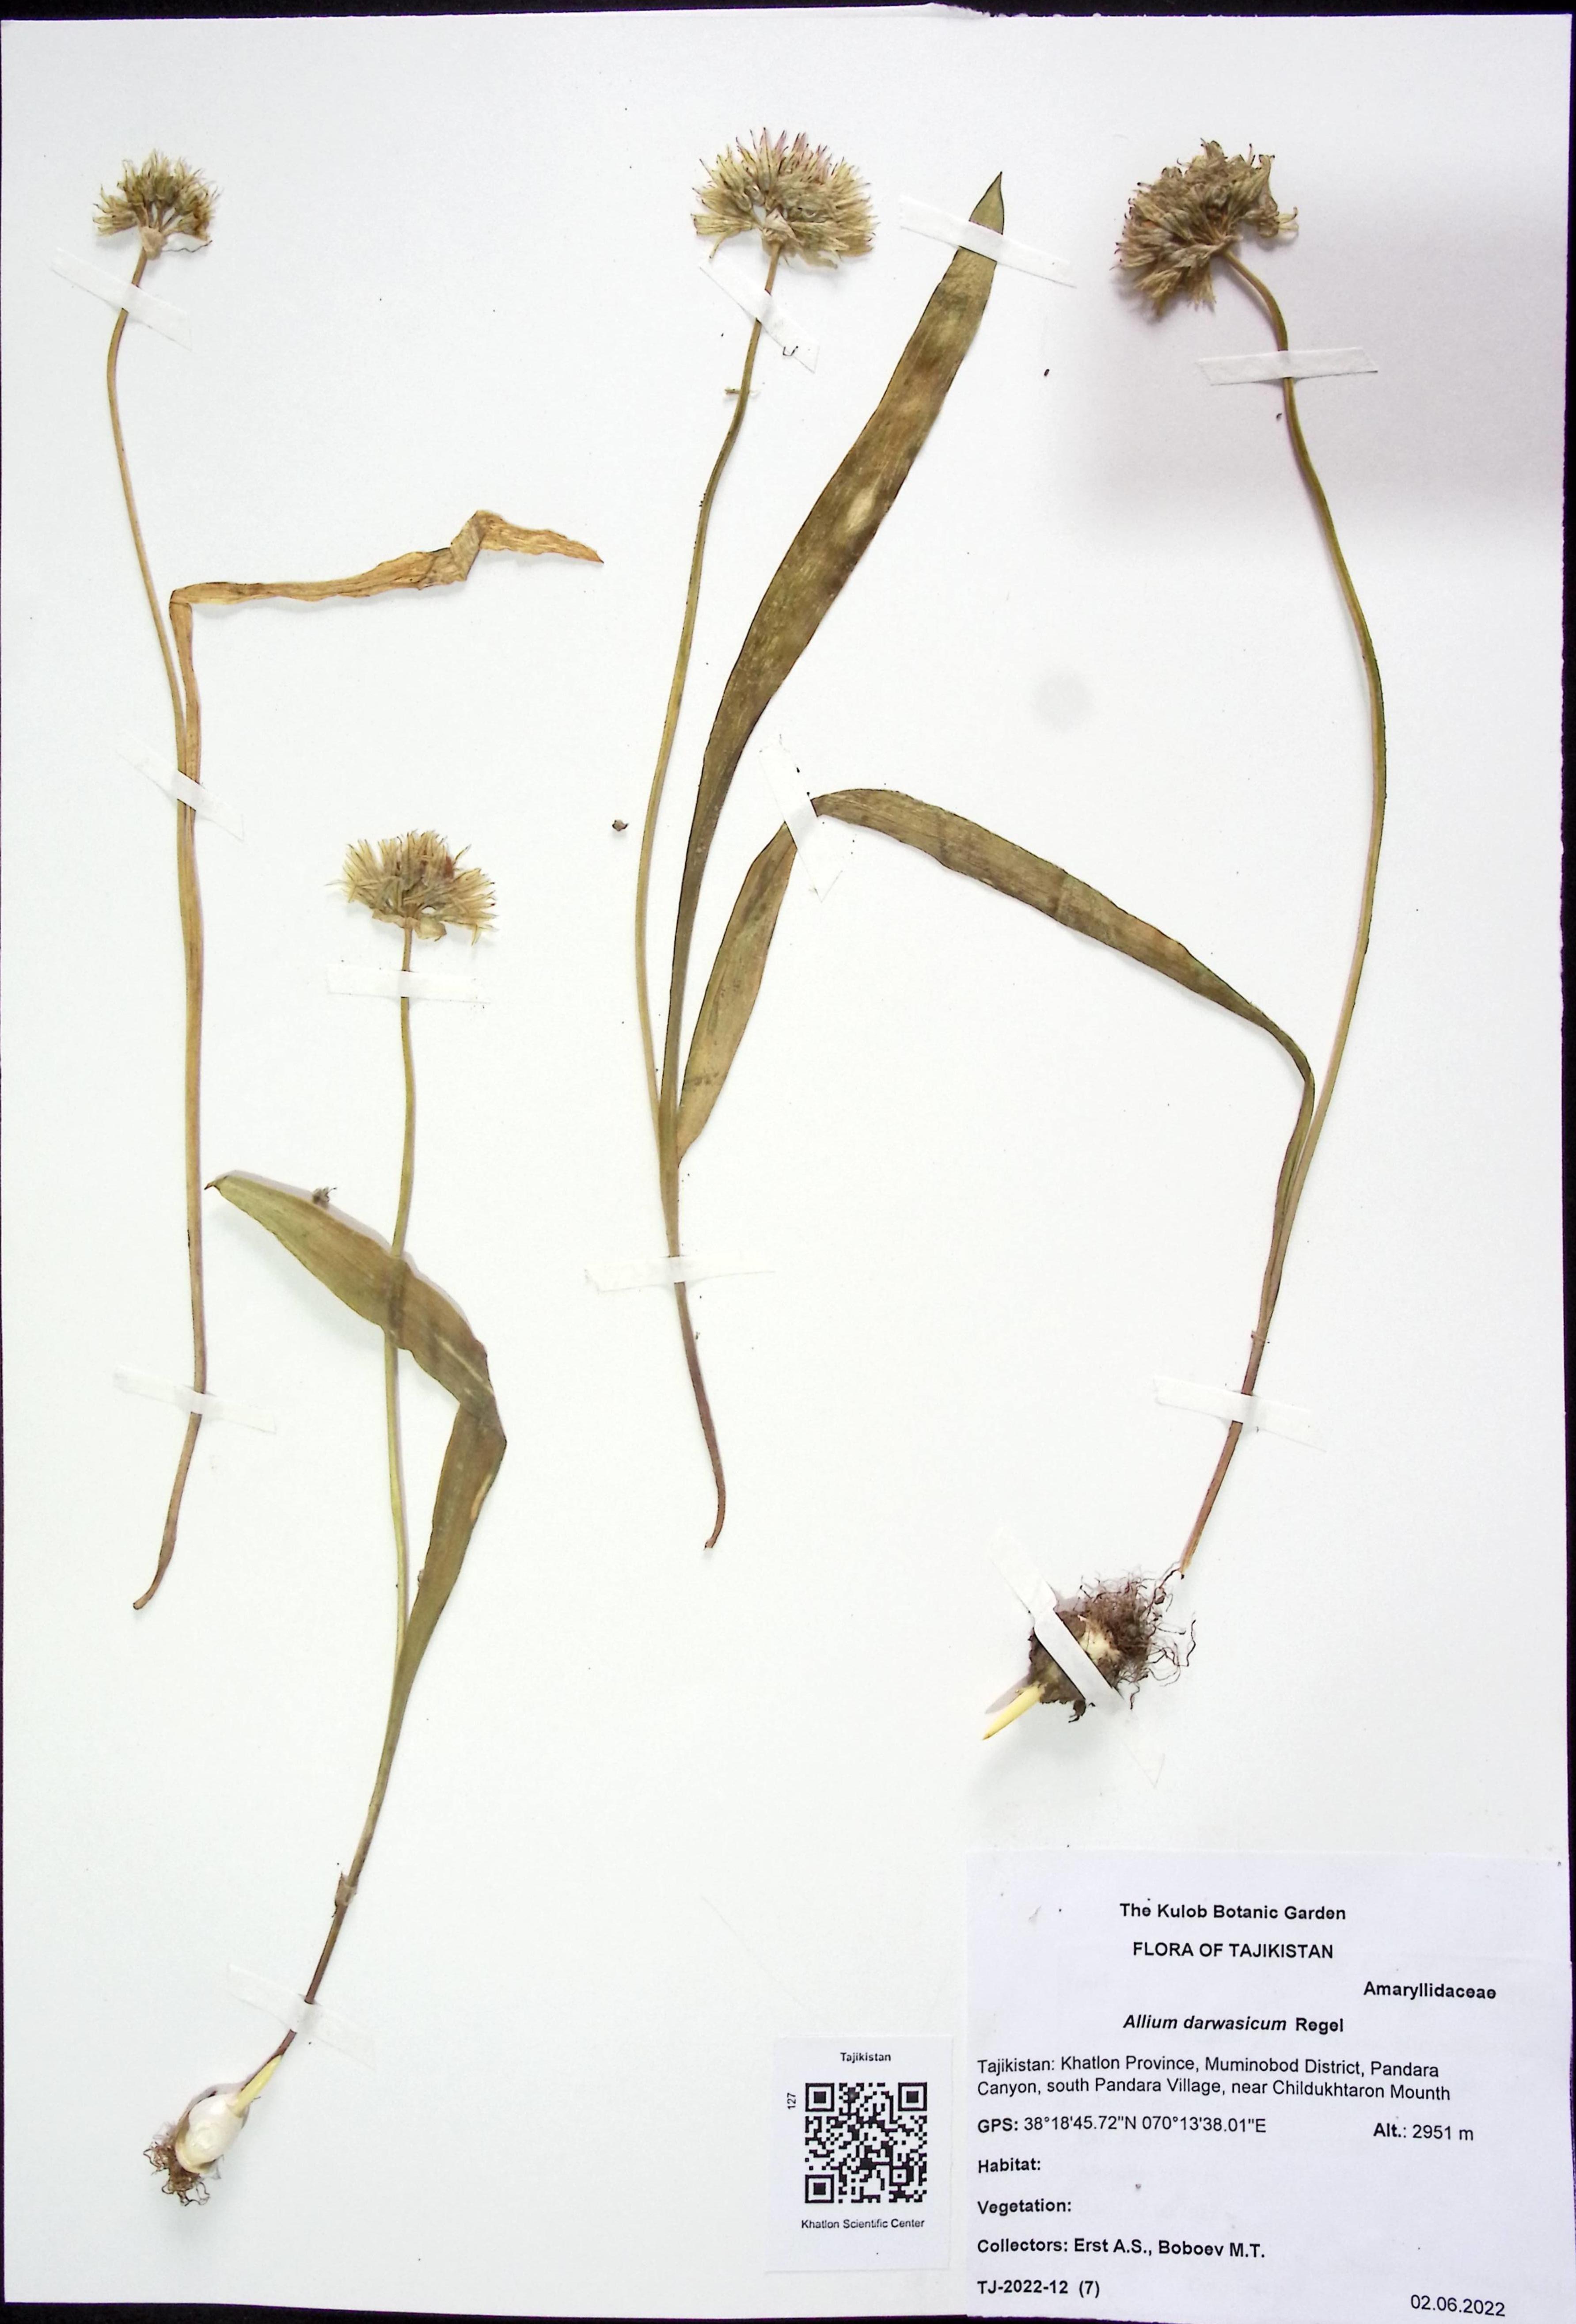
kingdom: Plantae
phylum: Tracheophyta
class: Liliopsida
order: Asparagales
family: Amaryllidaceae
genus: Allium
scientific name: Allium darwasicum
